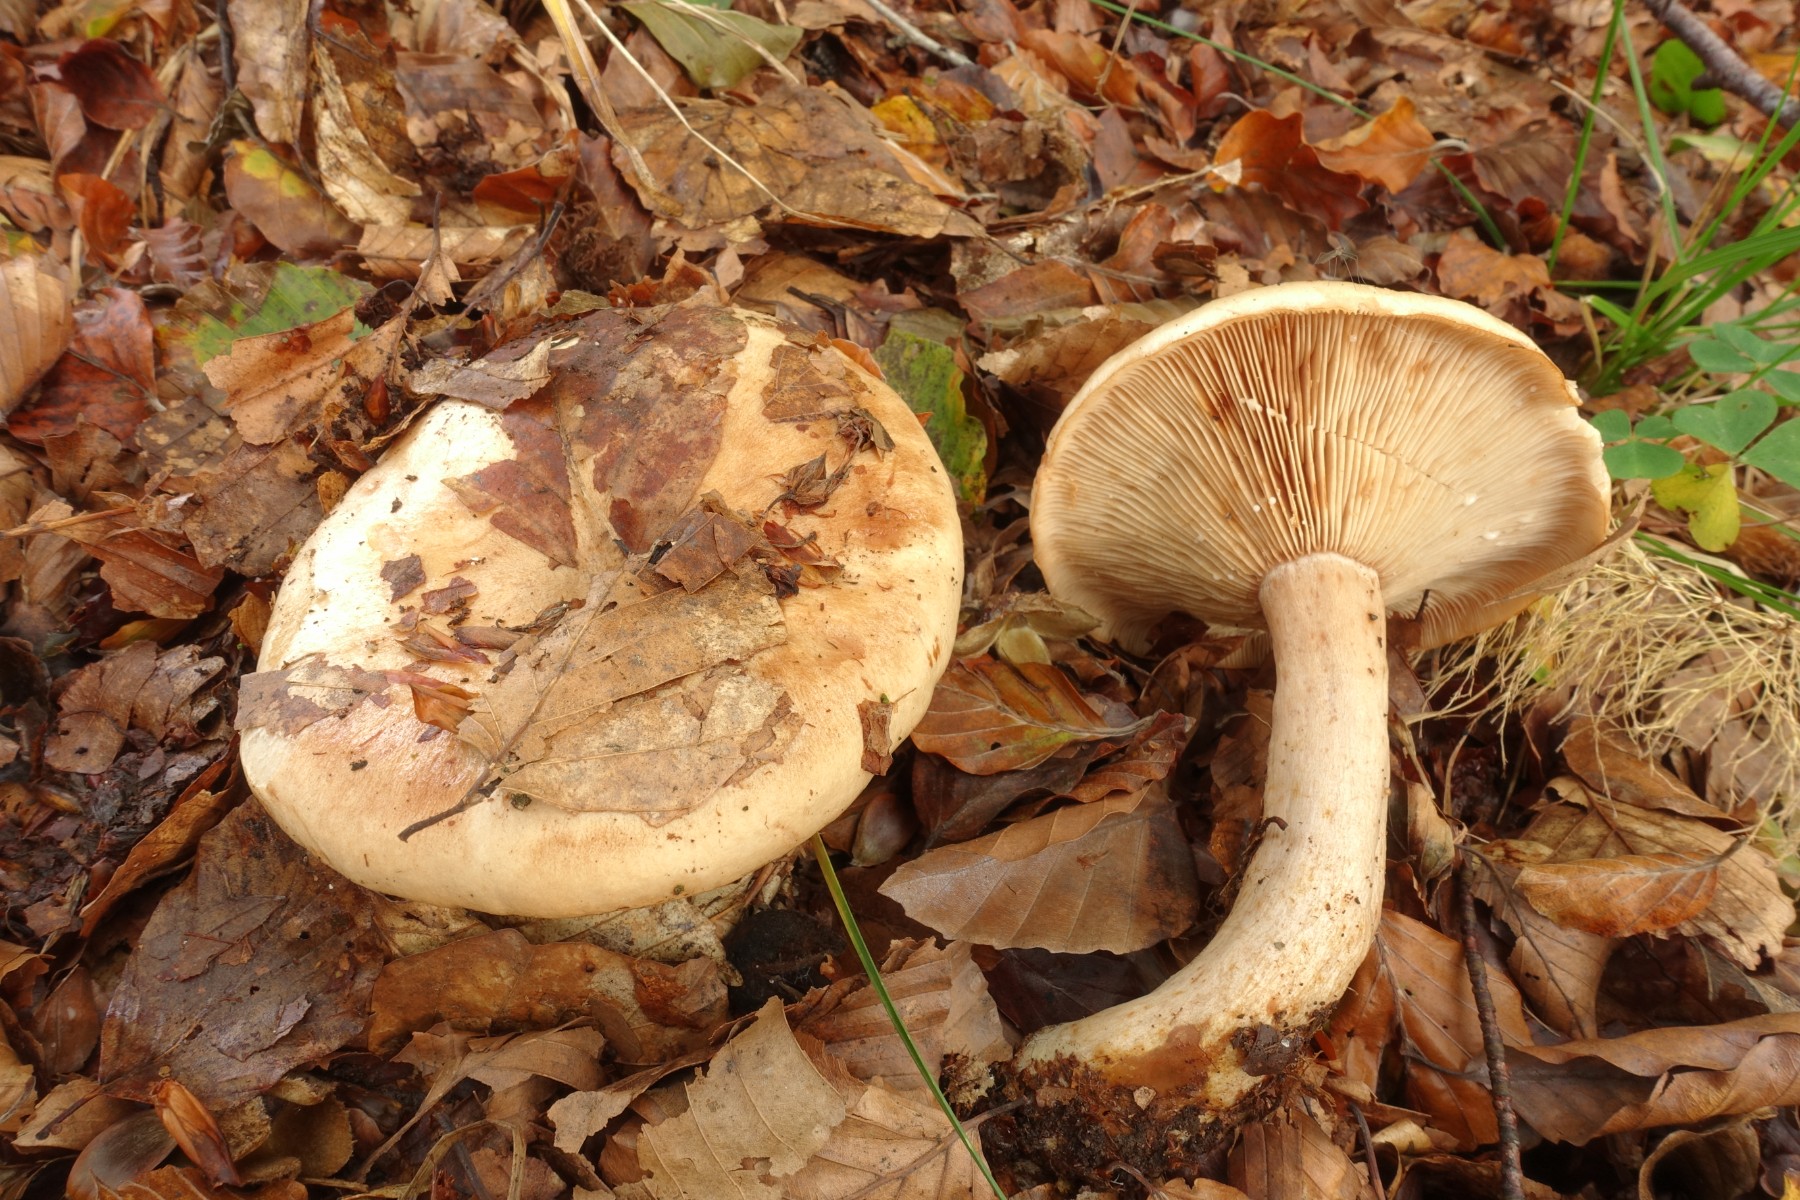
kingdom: Fungi
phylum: Basidiomycota
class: Agaricomycetes
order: Russulales
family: Russulaceae
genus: Lactarius
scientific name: Lactarius pallidus
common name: bleg mælkehat
